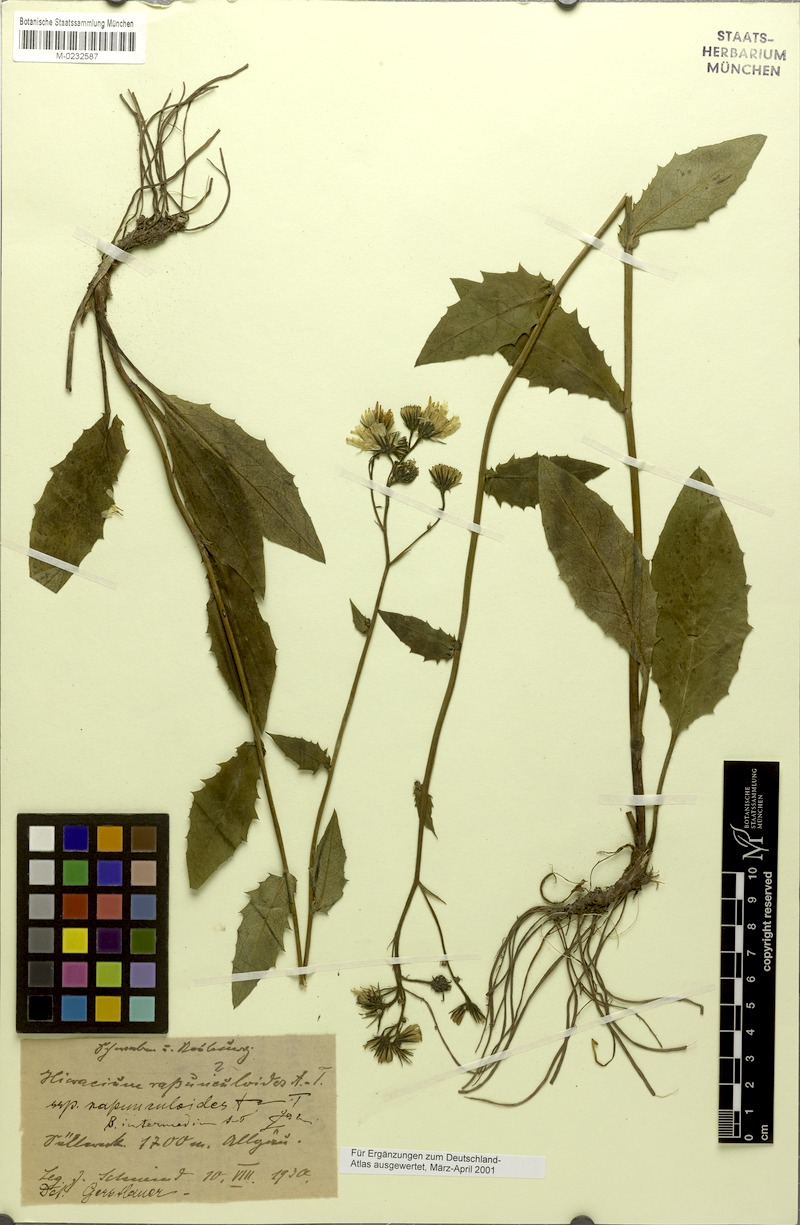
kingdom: Plantae
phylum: Tracheophyta
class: Magnoliopsida
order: Asterales
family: Asteraceae
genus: Hieracium
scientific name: Hieracium rapunculoides
